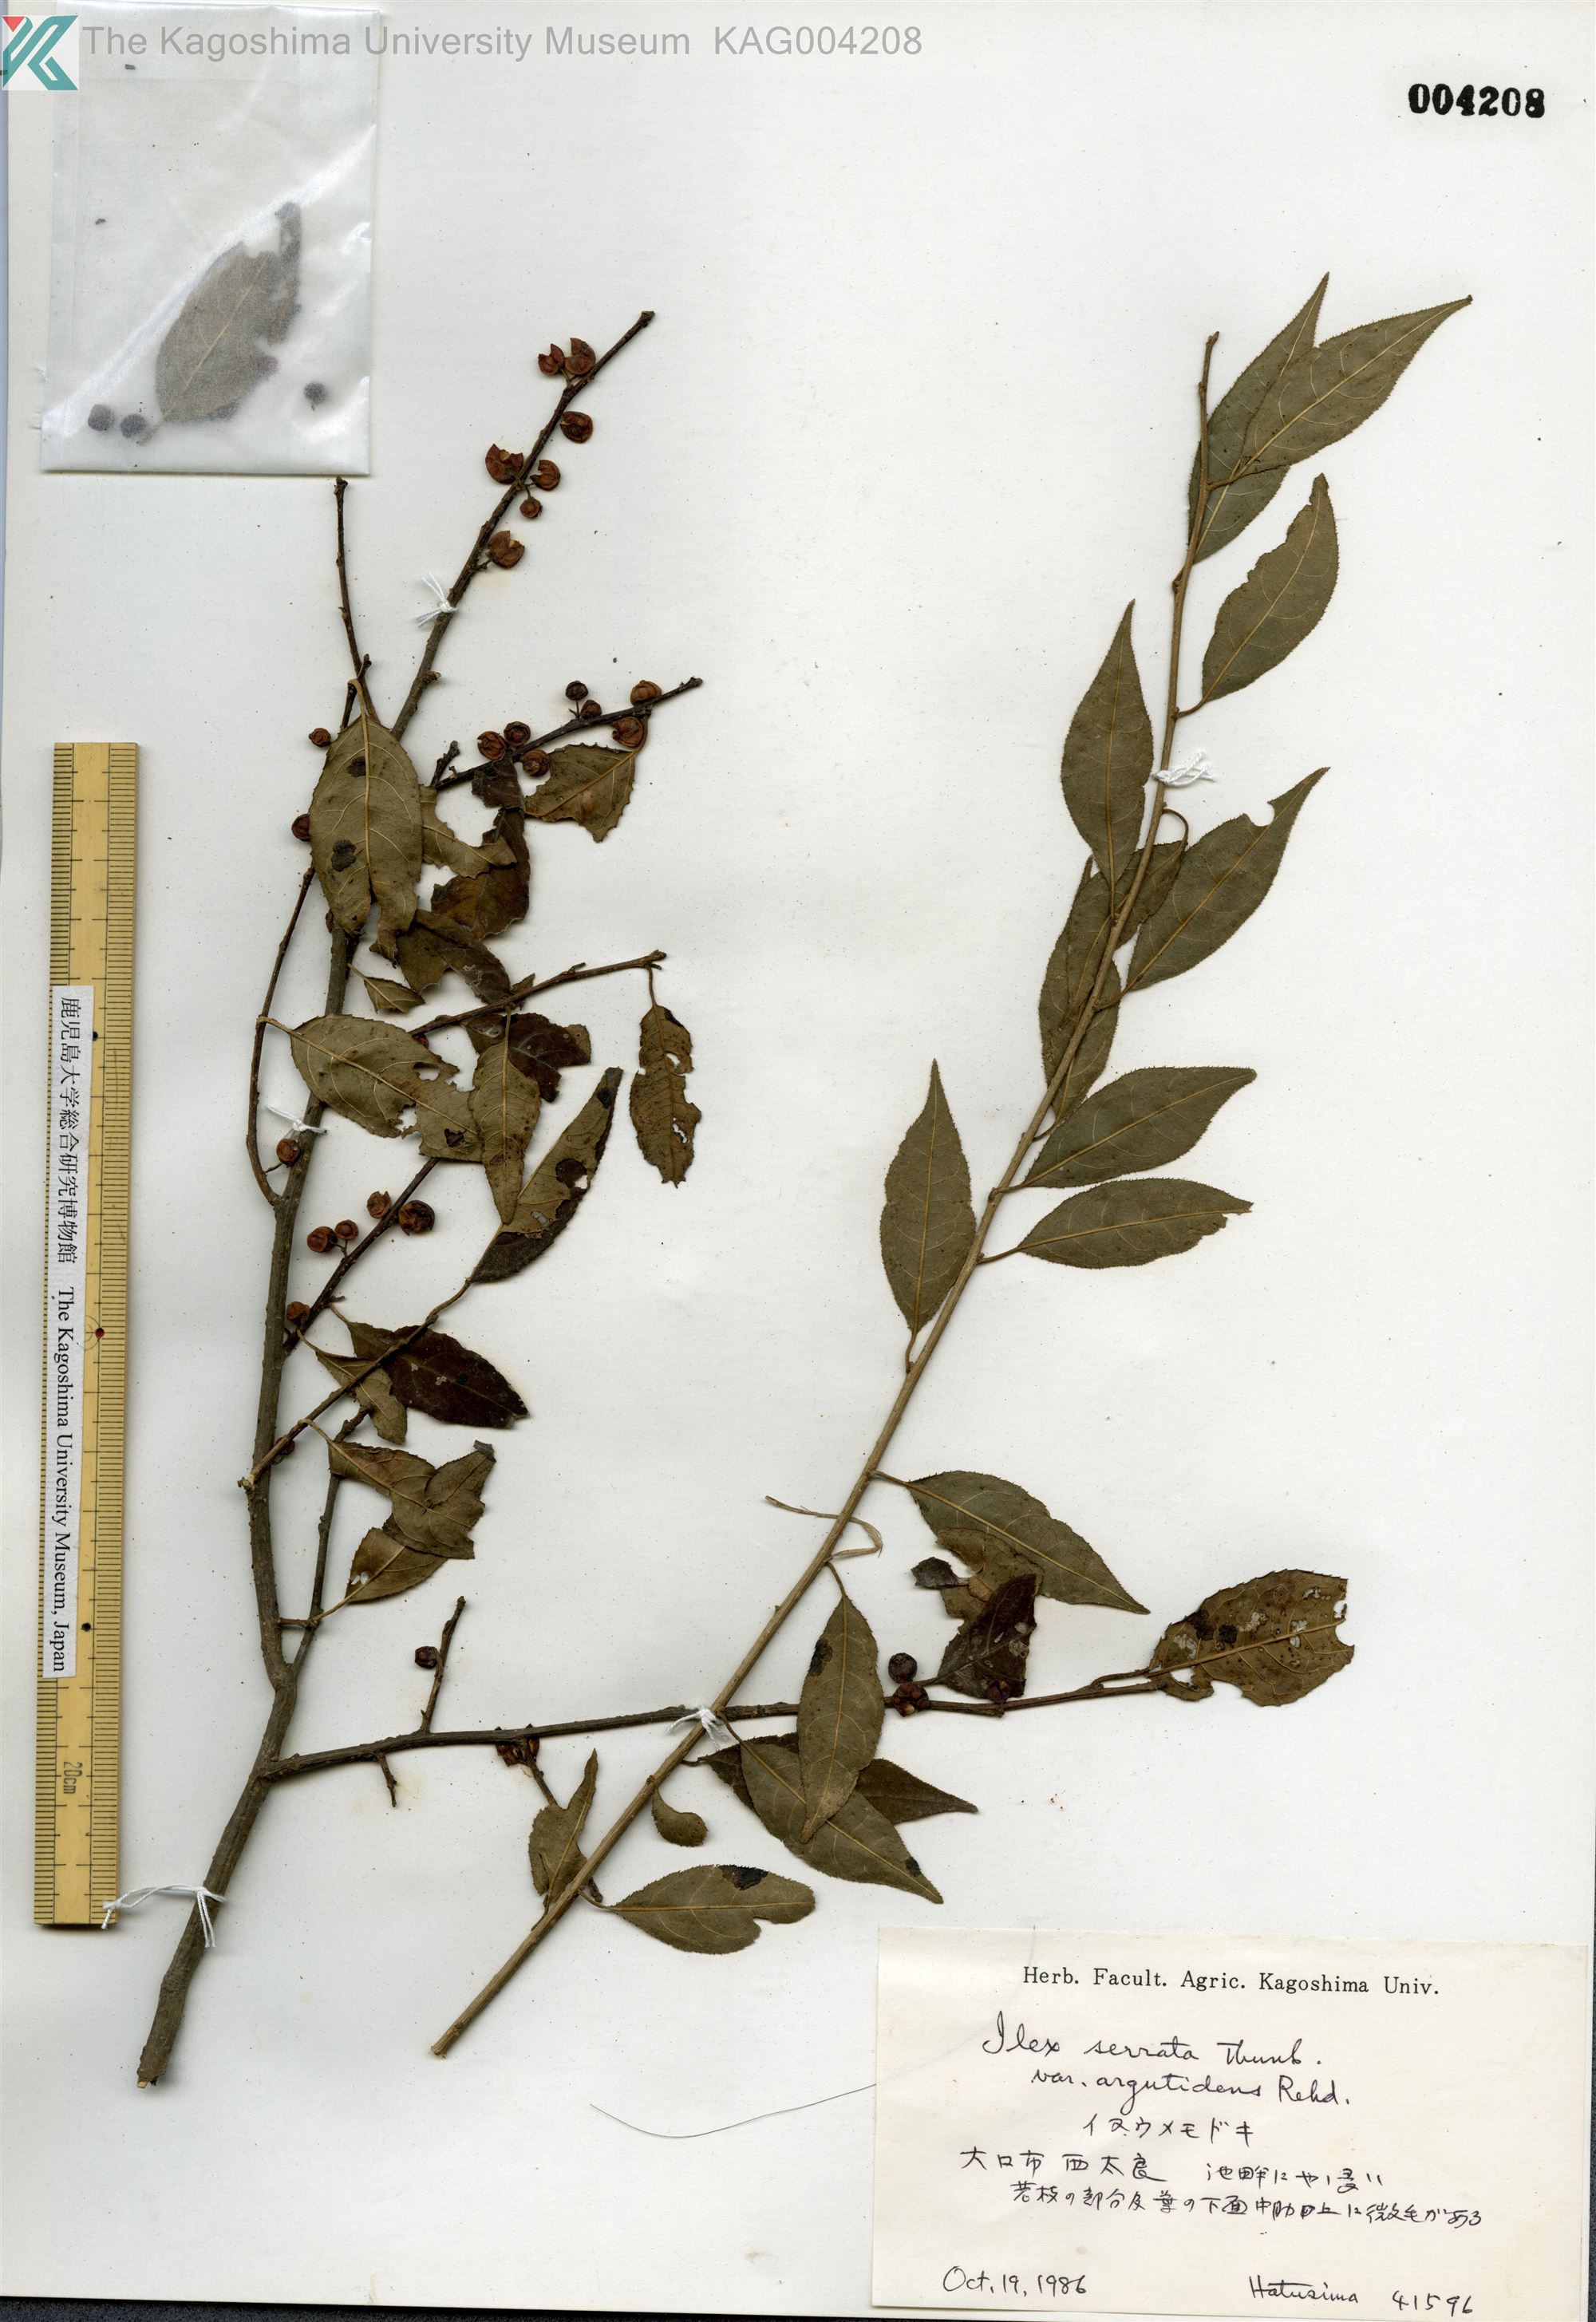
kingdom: Plantae
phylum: Tracheophyta
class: Magnoliopsida
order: Aquifoliales
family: Aquifoliaceae
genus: Ilex
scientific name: Ilex serrata
